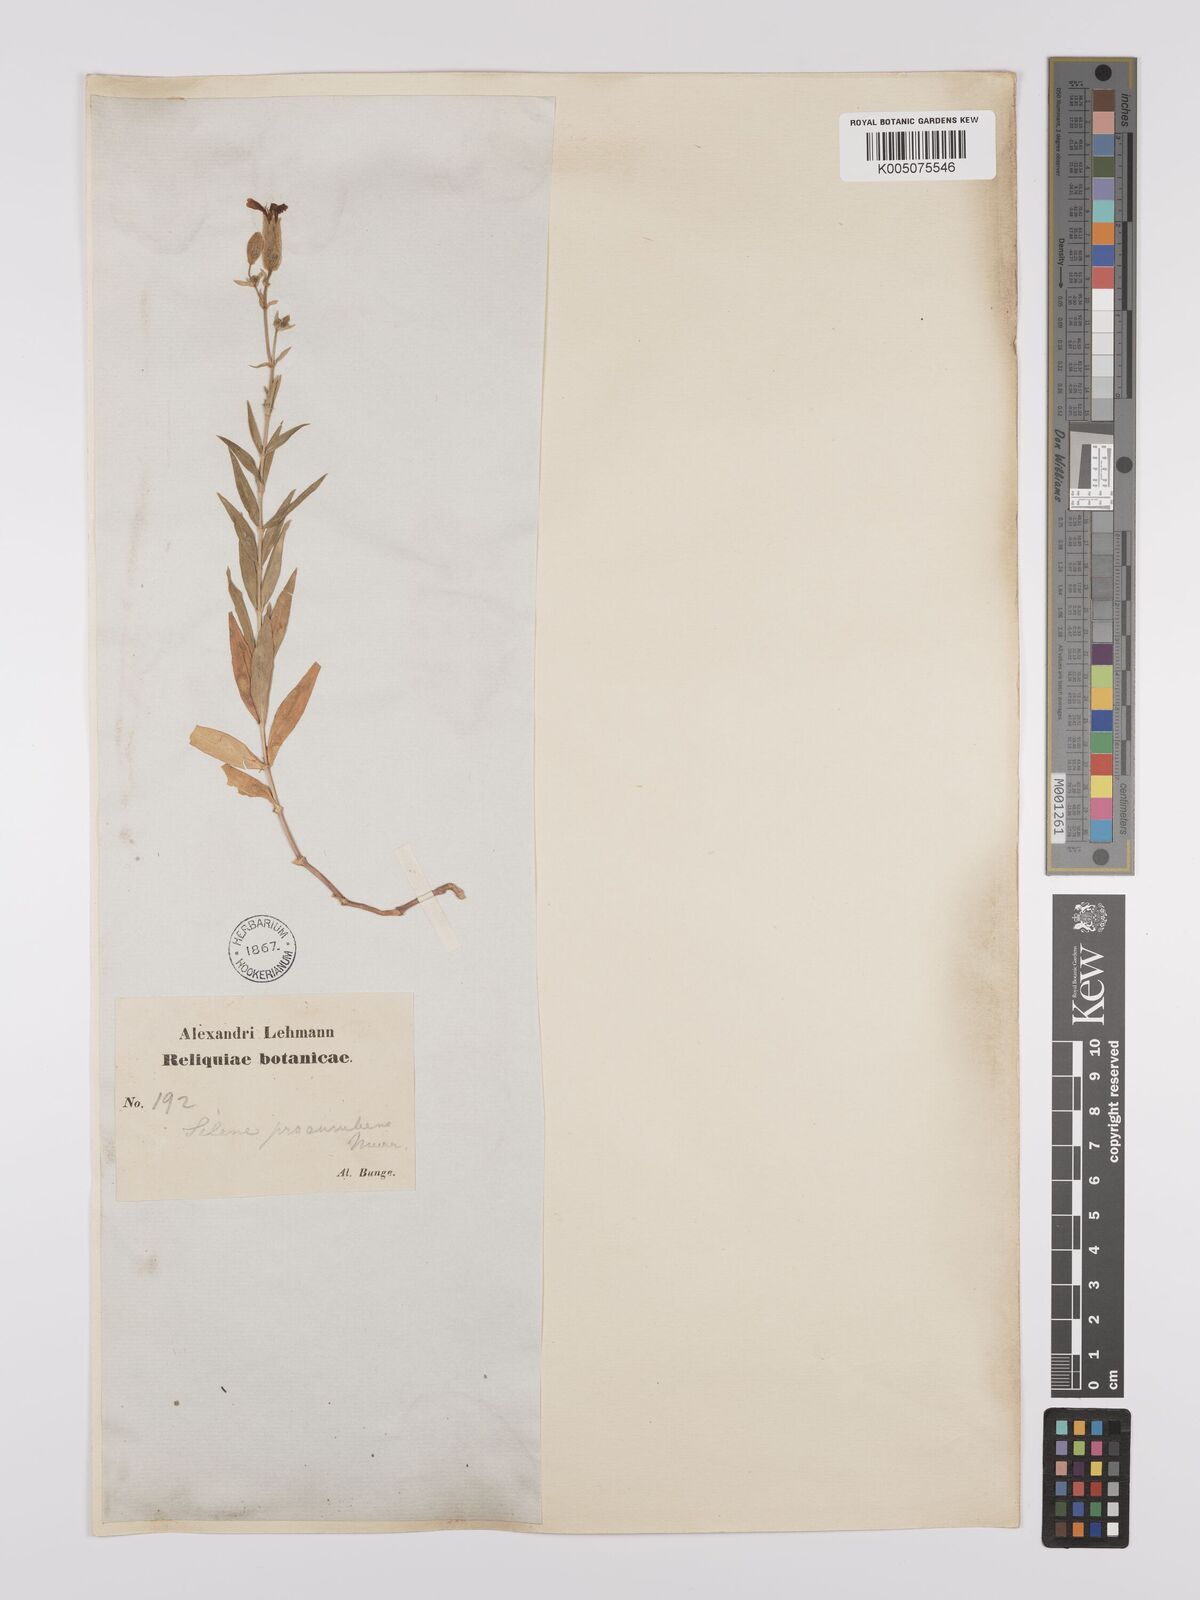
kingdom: Plantae
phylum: Tracheophyta
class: Magnoliopsida
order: Caryophyllales
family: Caryophyllaceae
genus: Silene
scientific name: Silene
